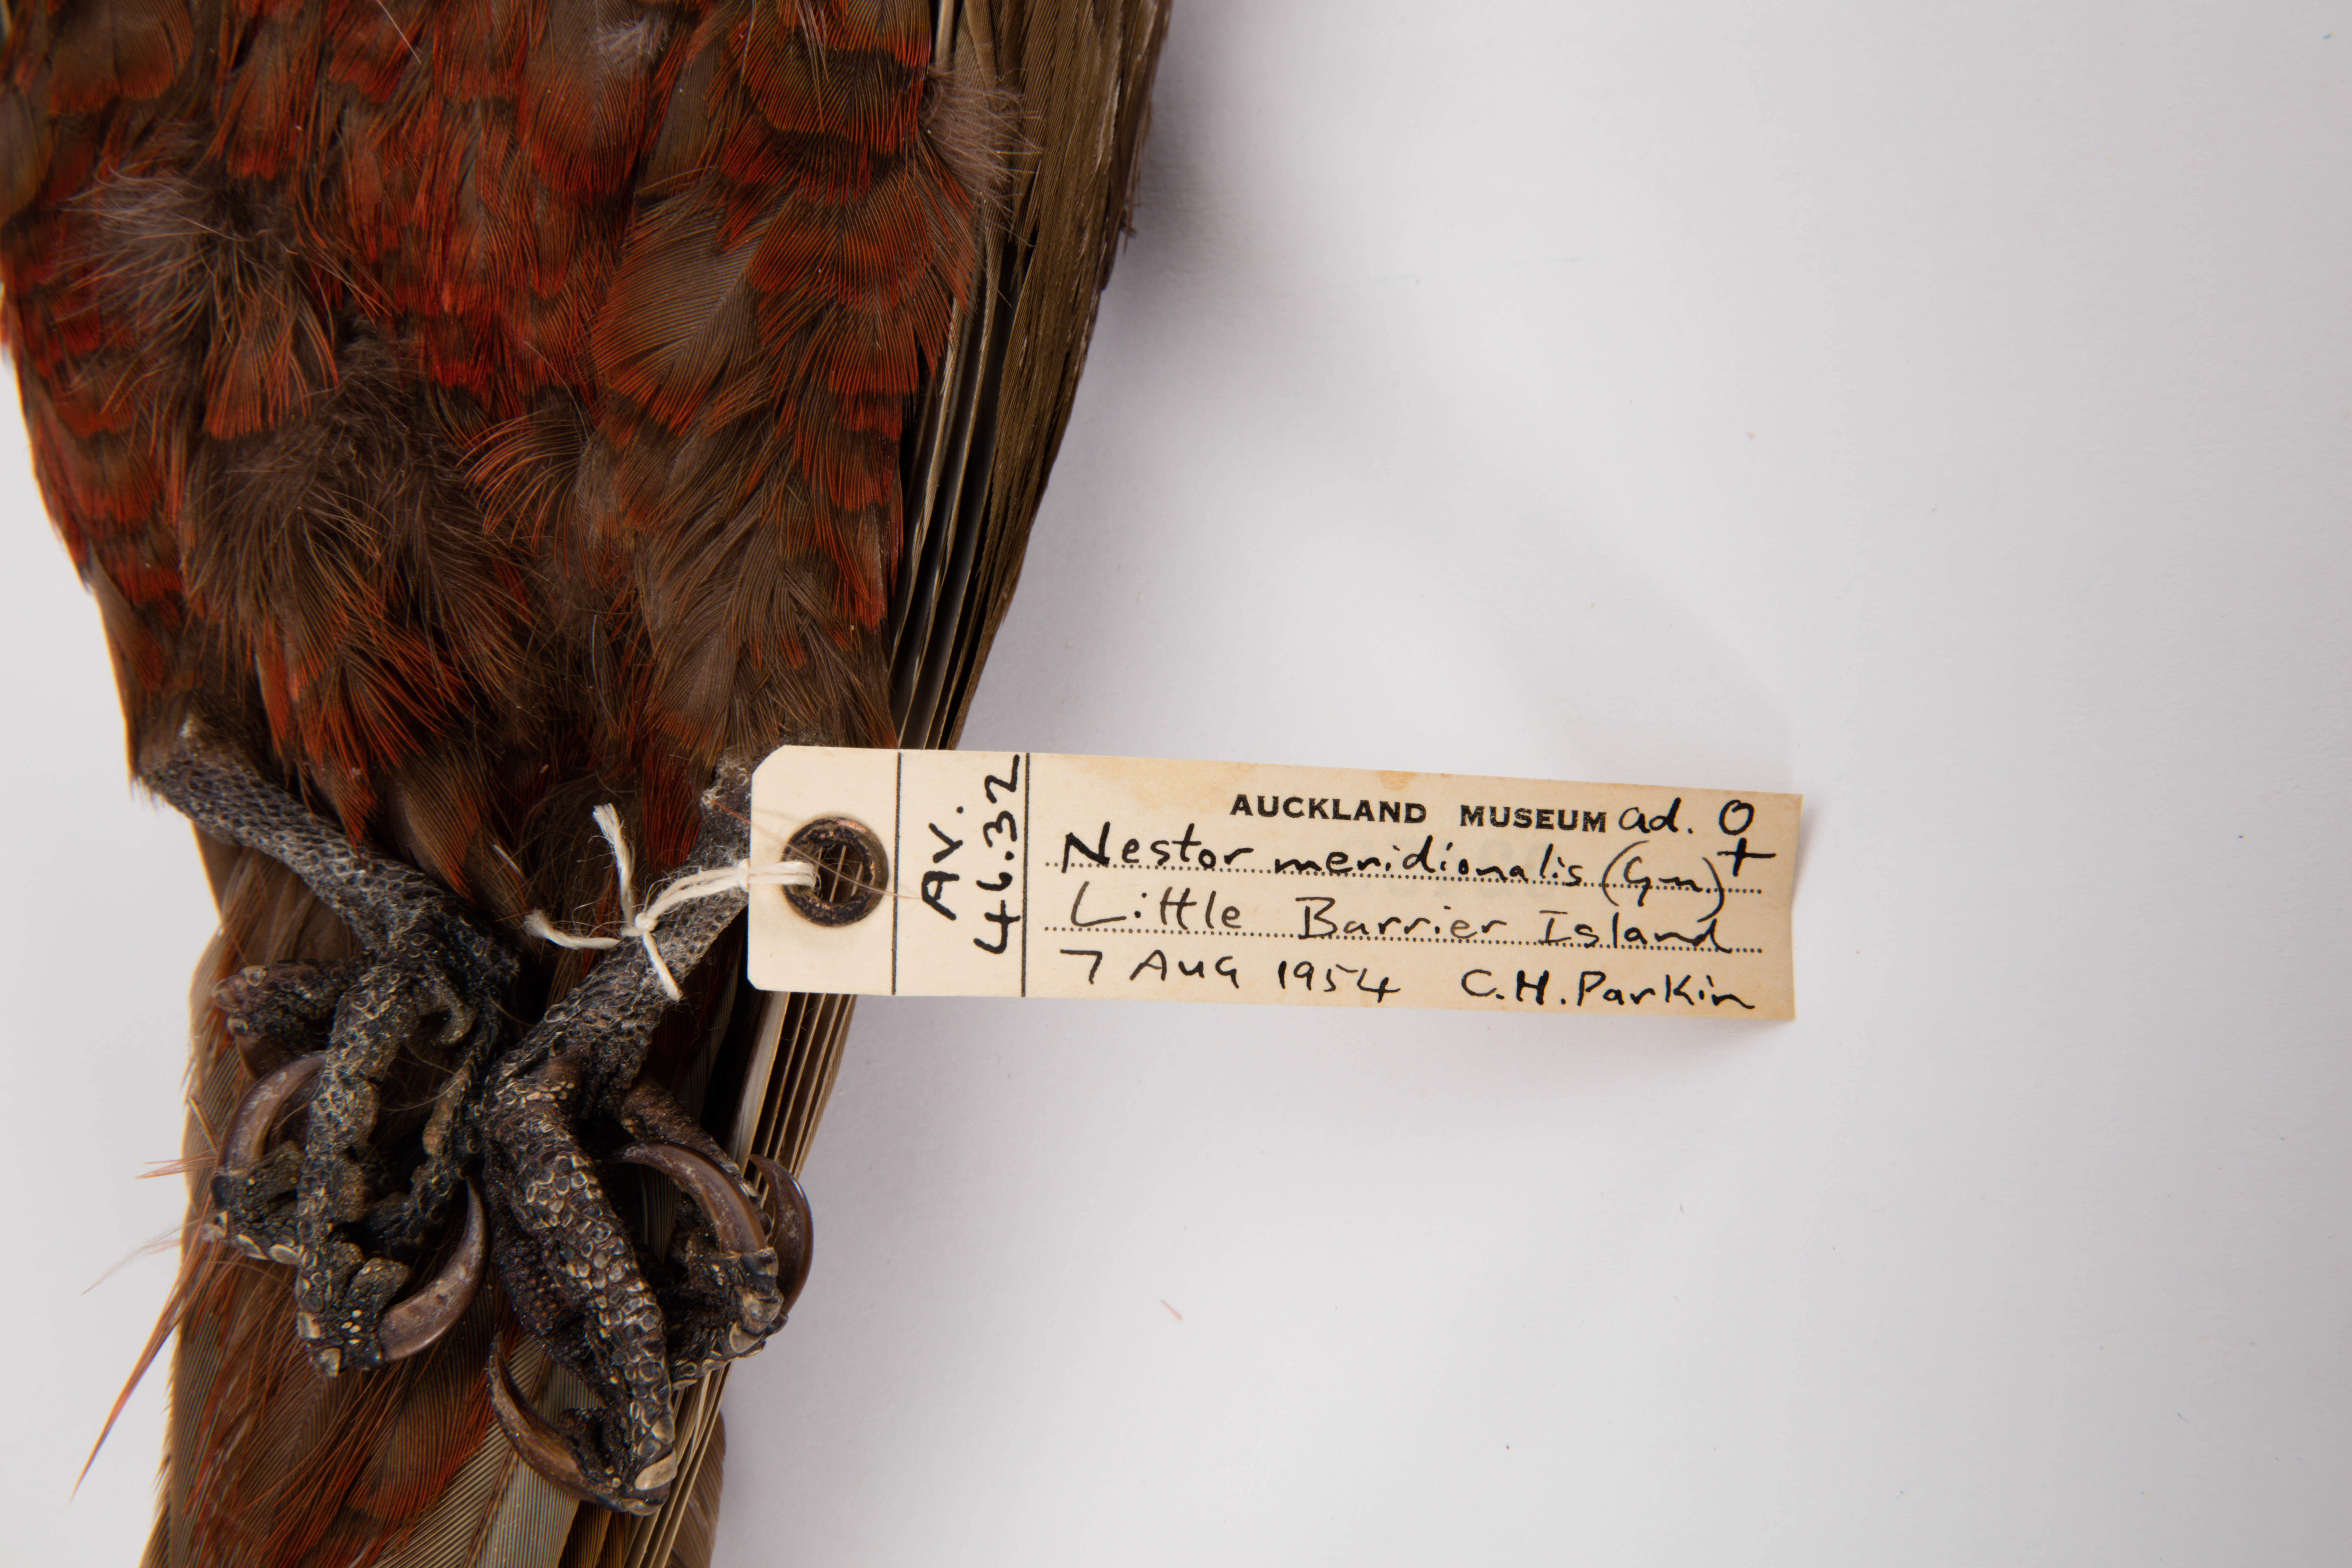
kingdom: Animalia
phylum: Chordata
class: Aves
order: Psittaciformes
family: Psittacidae
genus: Nestor
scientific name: Nestor meridionalis
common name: New zealand kaka
